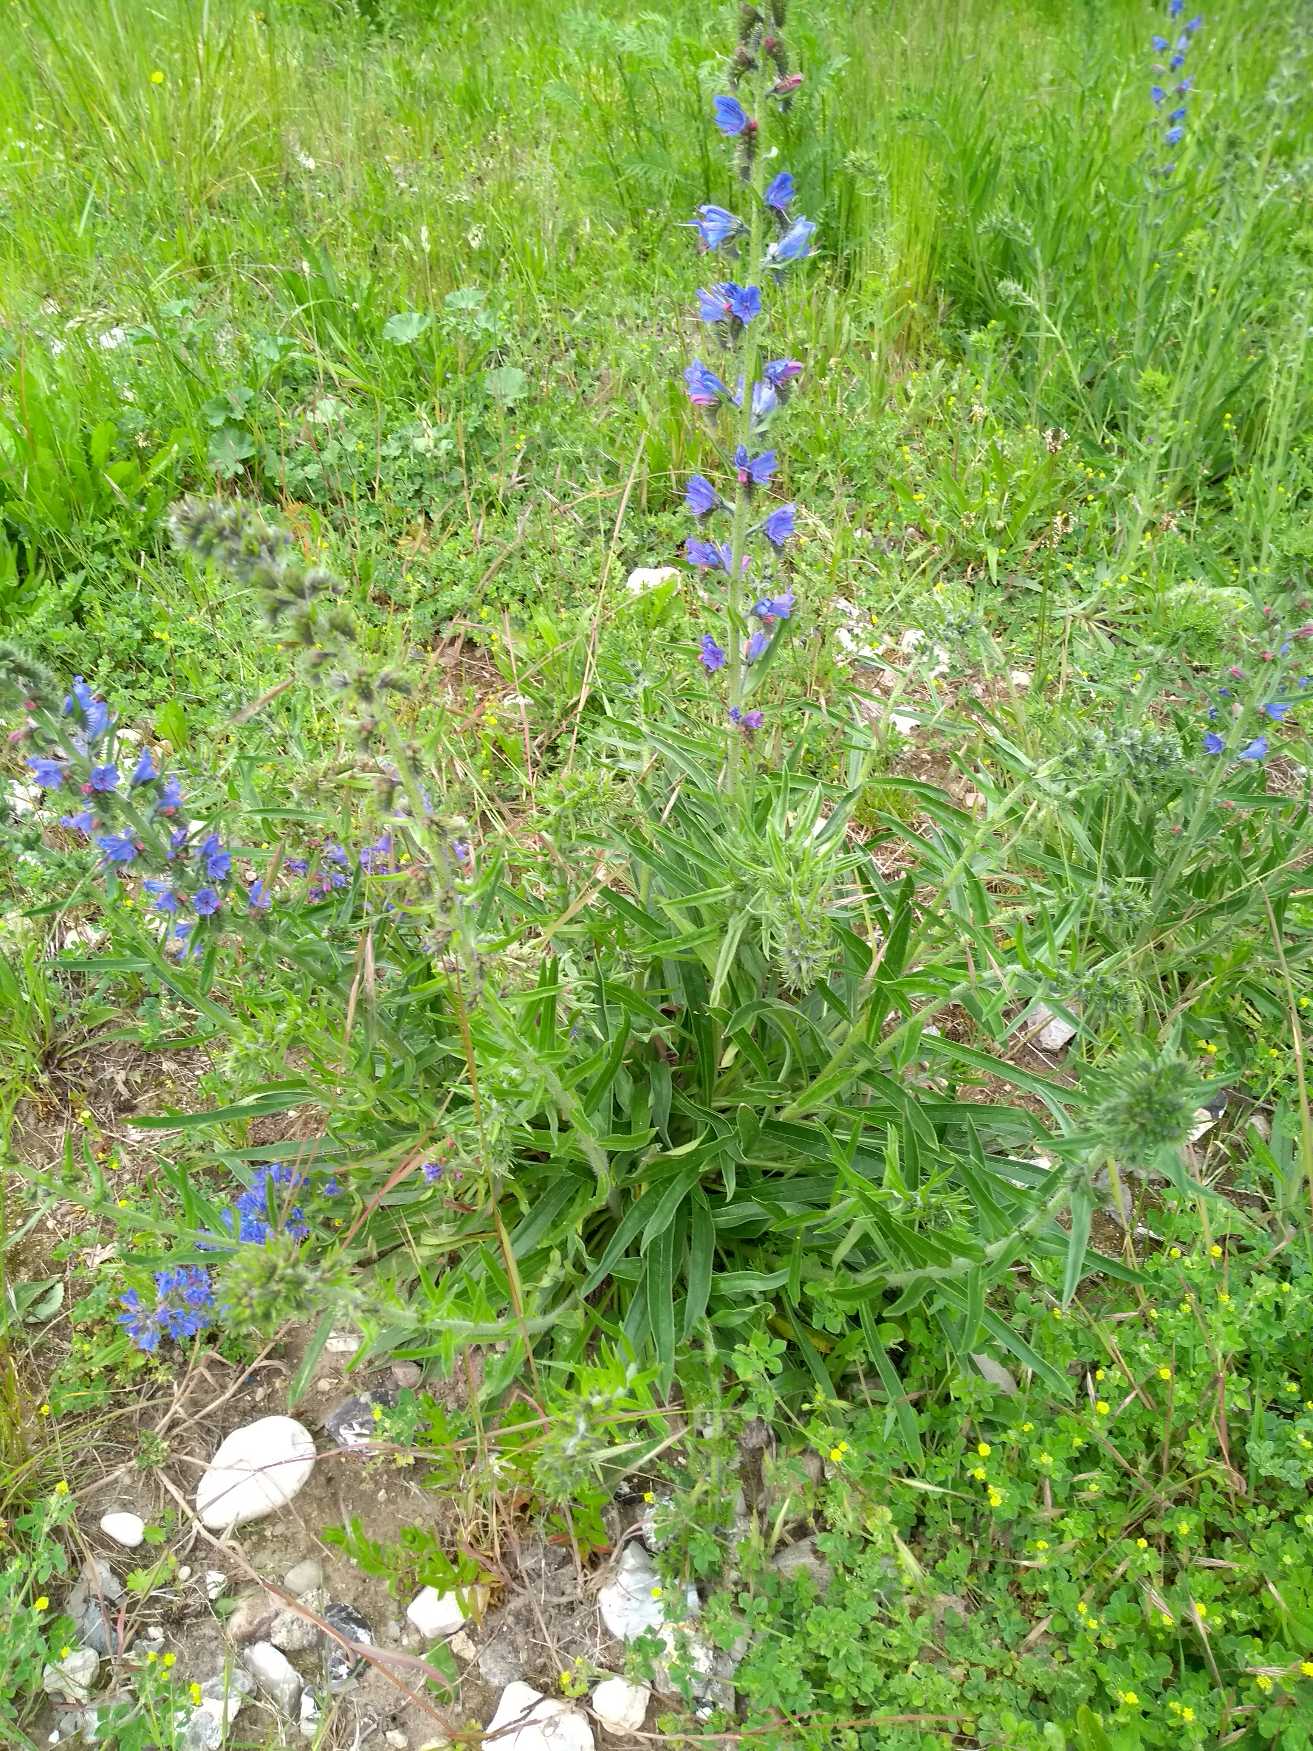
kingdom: Plantae
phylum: Tracheophyta
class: Magnoliopsida
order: Boraginales
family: Boraginaceae
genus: Echium
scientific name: Echium vulgare
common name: Slangehoved
